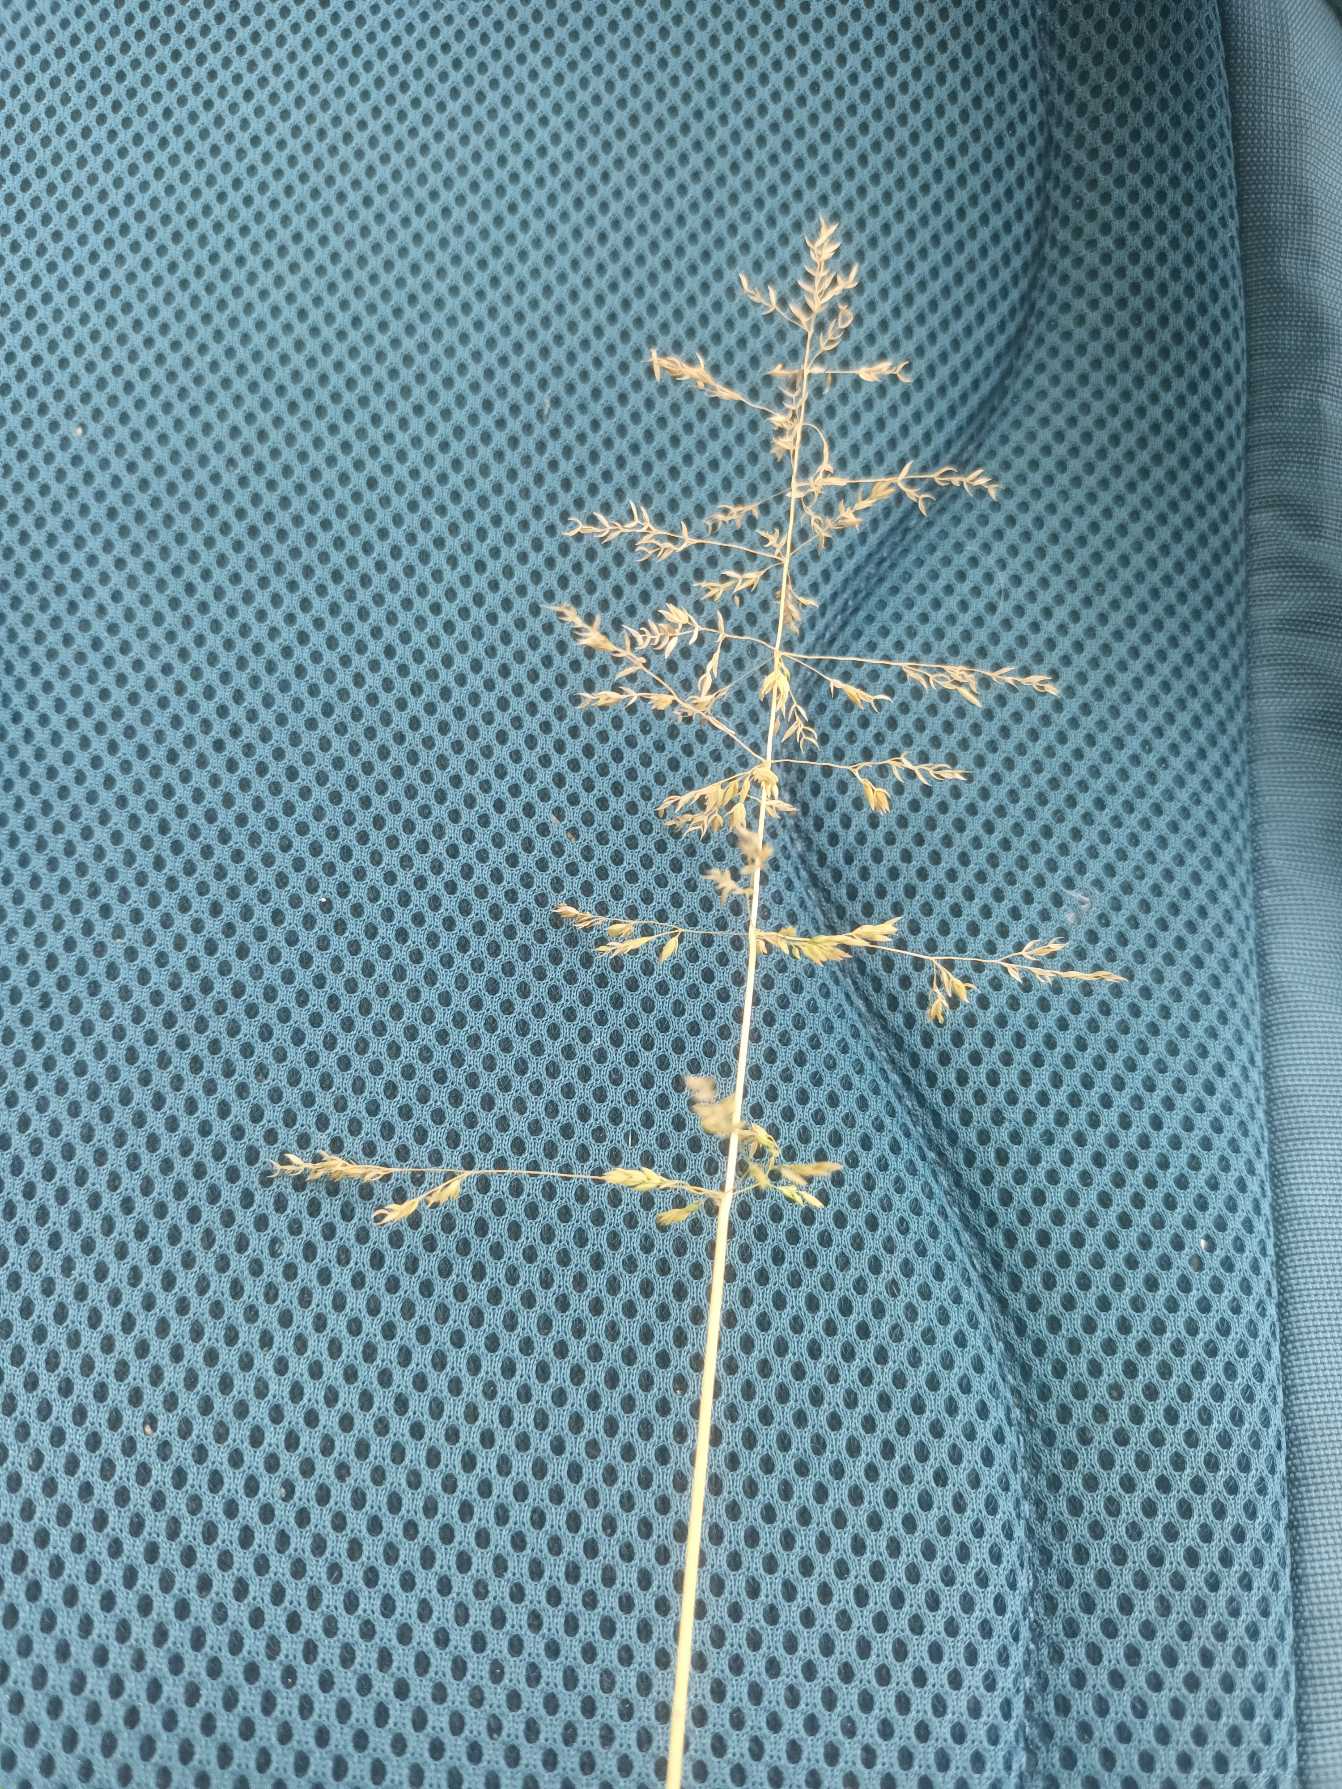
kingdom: Plantae
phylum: Tracheophyta
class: Liliopsida
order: Poales
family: Poaceae
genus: Poa
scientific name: Poa trivialis
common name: Almindelig rapgræs
